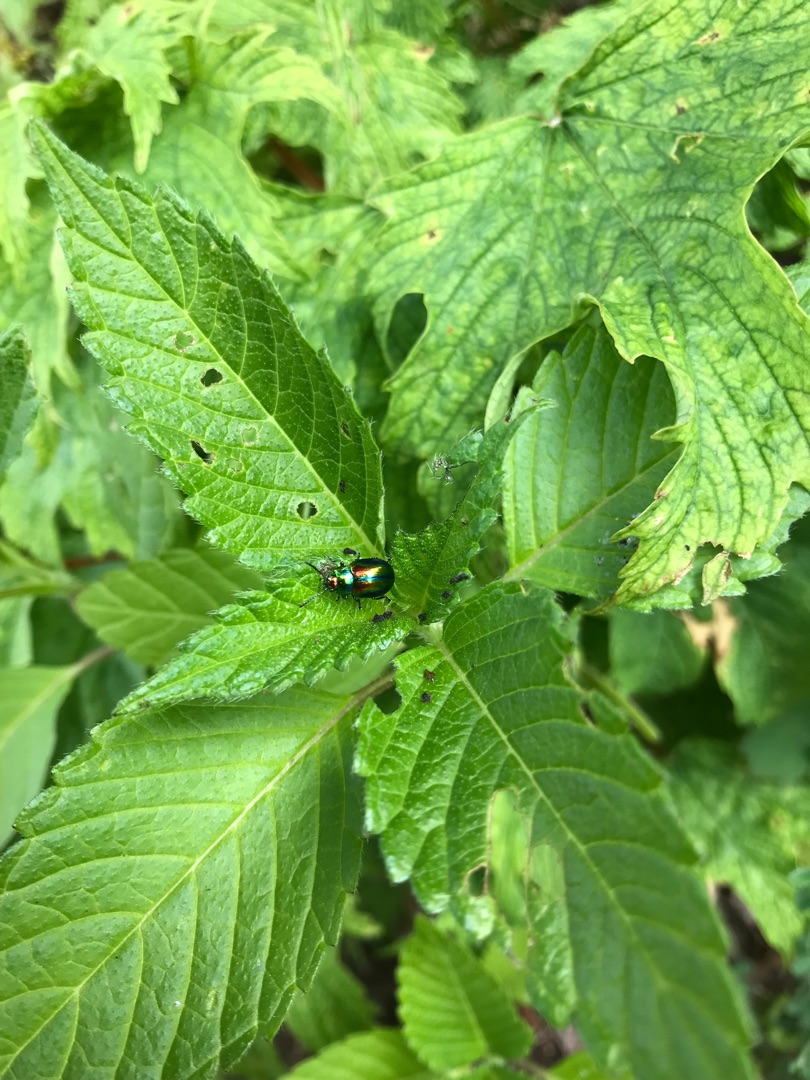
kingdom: Animalia
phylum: Arthropoda
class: Insecta
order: Coleoptera
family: Chrysomelidae
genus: Chrysolina
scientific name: Chrysolina fastuosa
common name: Tvetandbladbille
